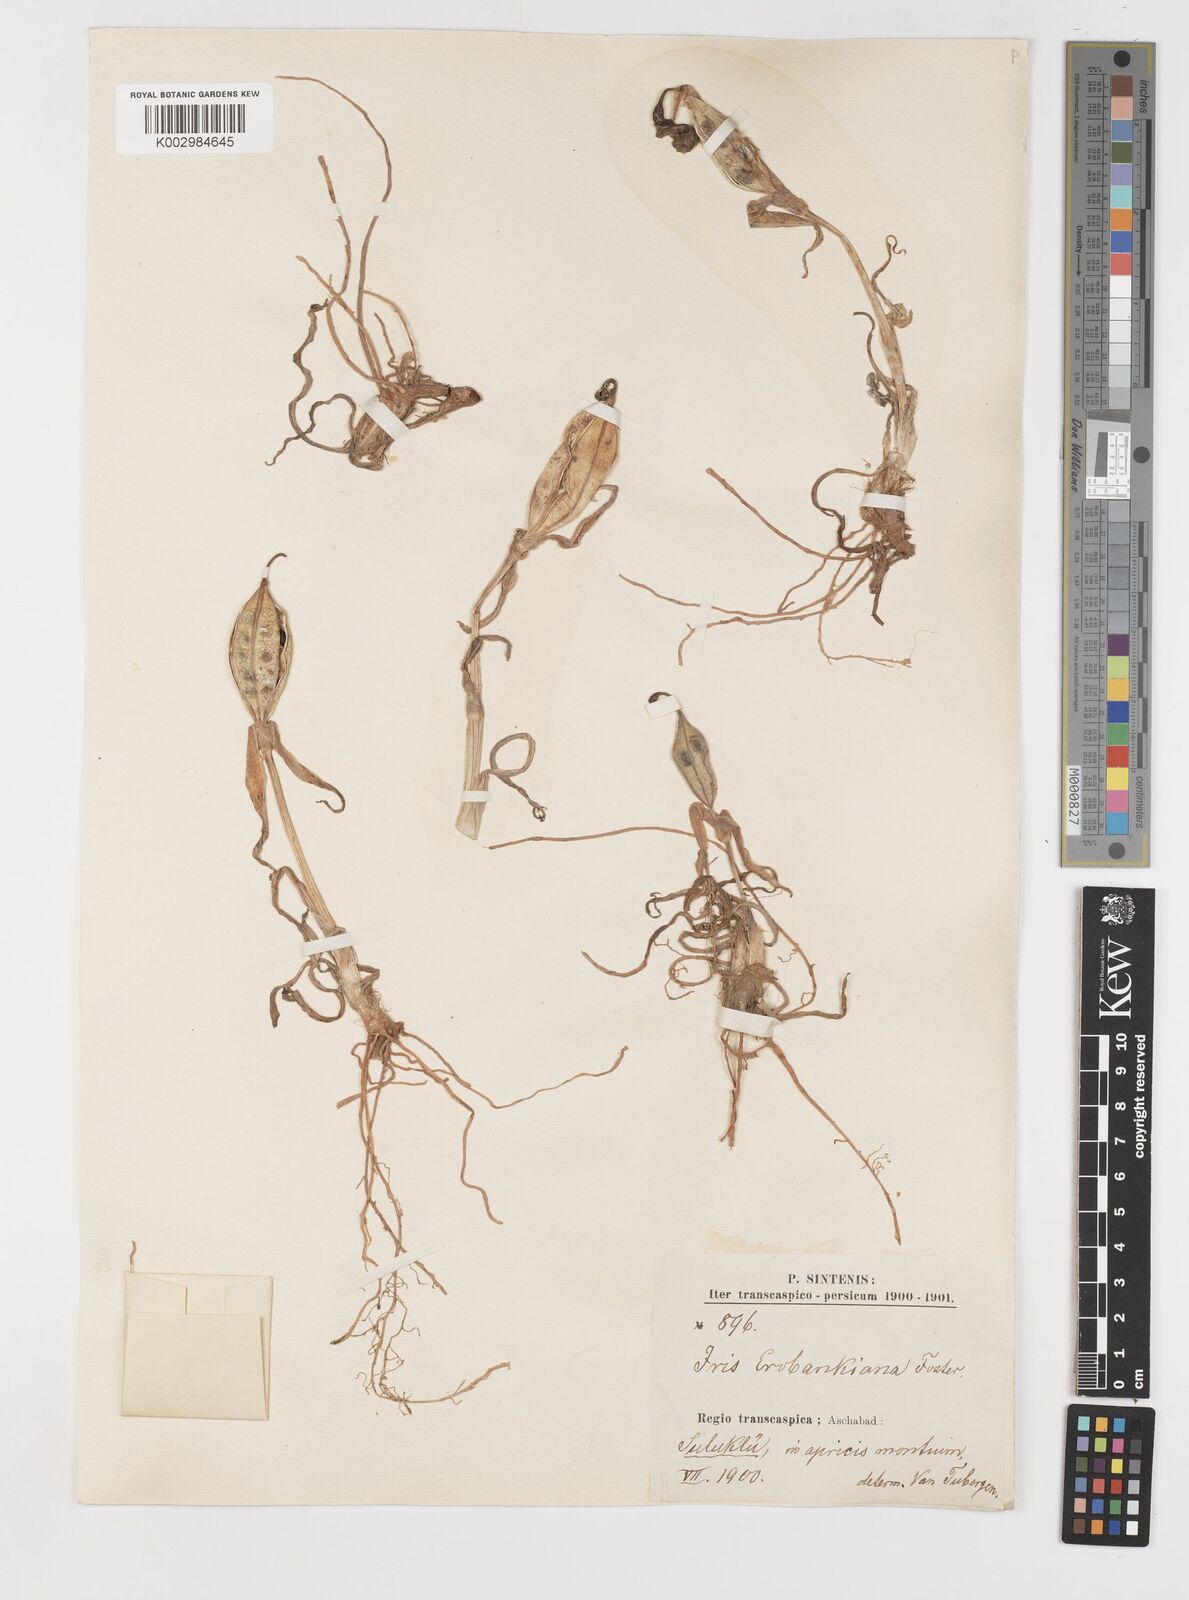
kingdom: Plantae
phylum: Tracheophyta
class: Liliopsida
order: Asparagales
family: Iridaceae
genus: Iris
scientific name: Iris acutiloba
